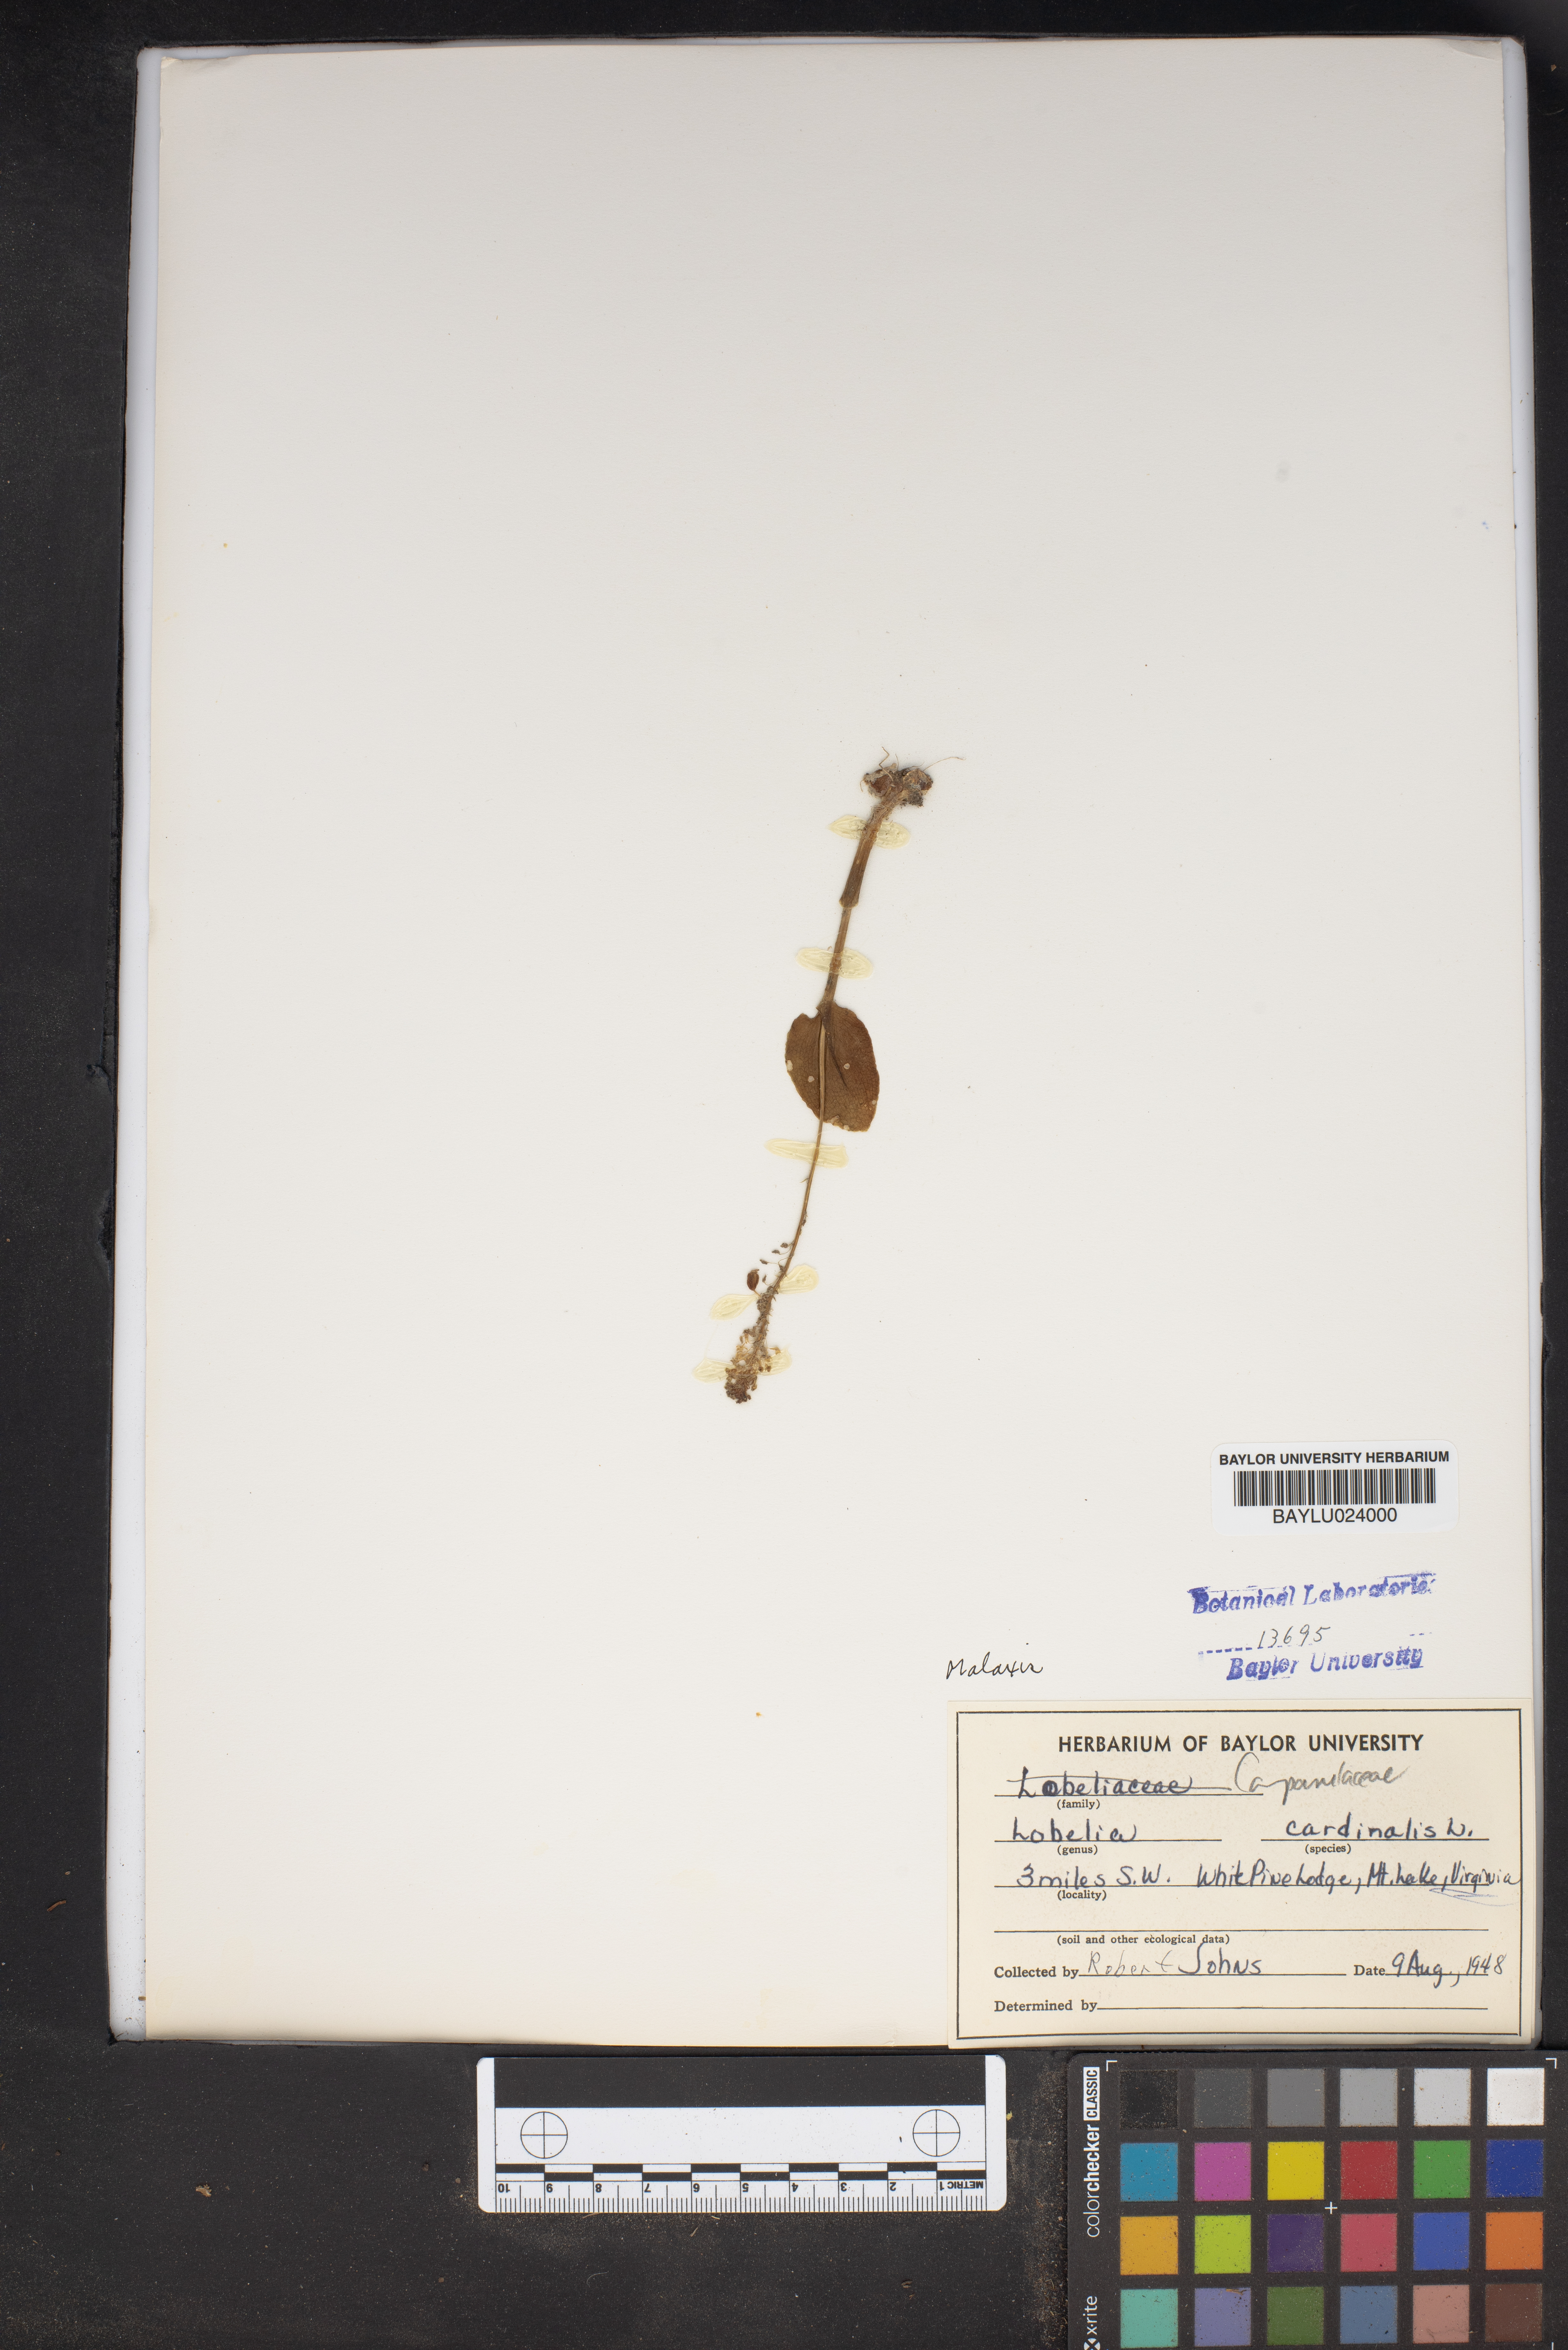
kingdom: Plantae
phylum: Tracheophyta
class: Magnoliopsida
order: Asterales
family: Campanulaceae
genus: Lobelia
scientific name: Lobelia cardinalis
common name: Cardinal flower
